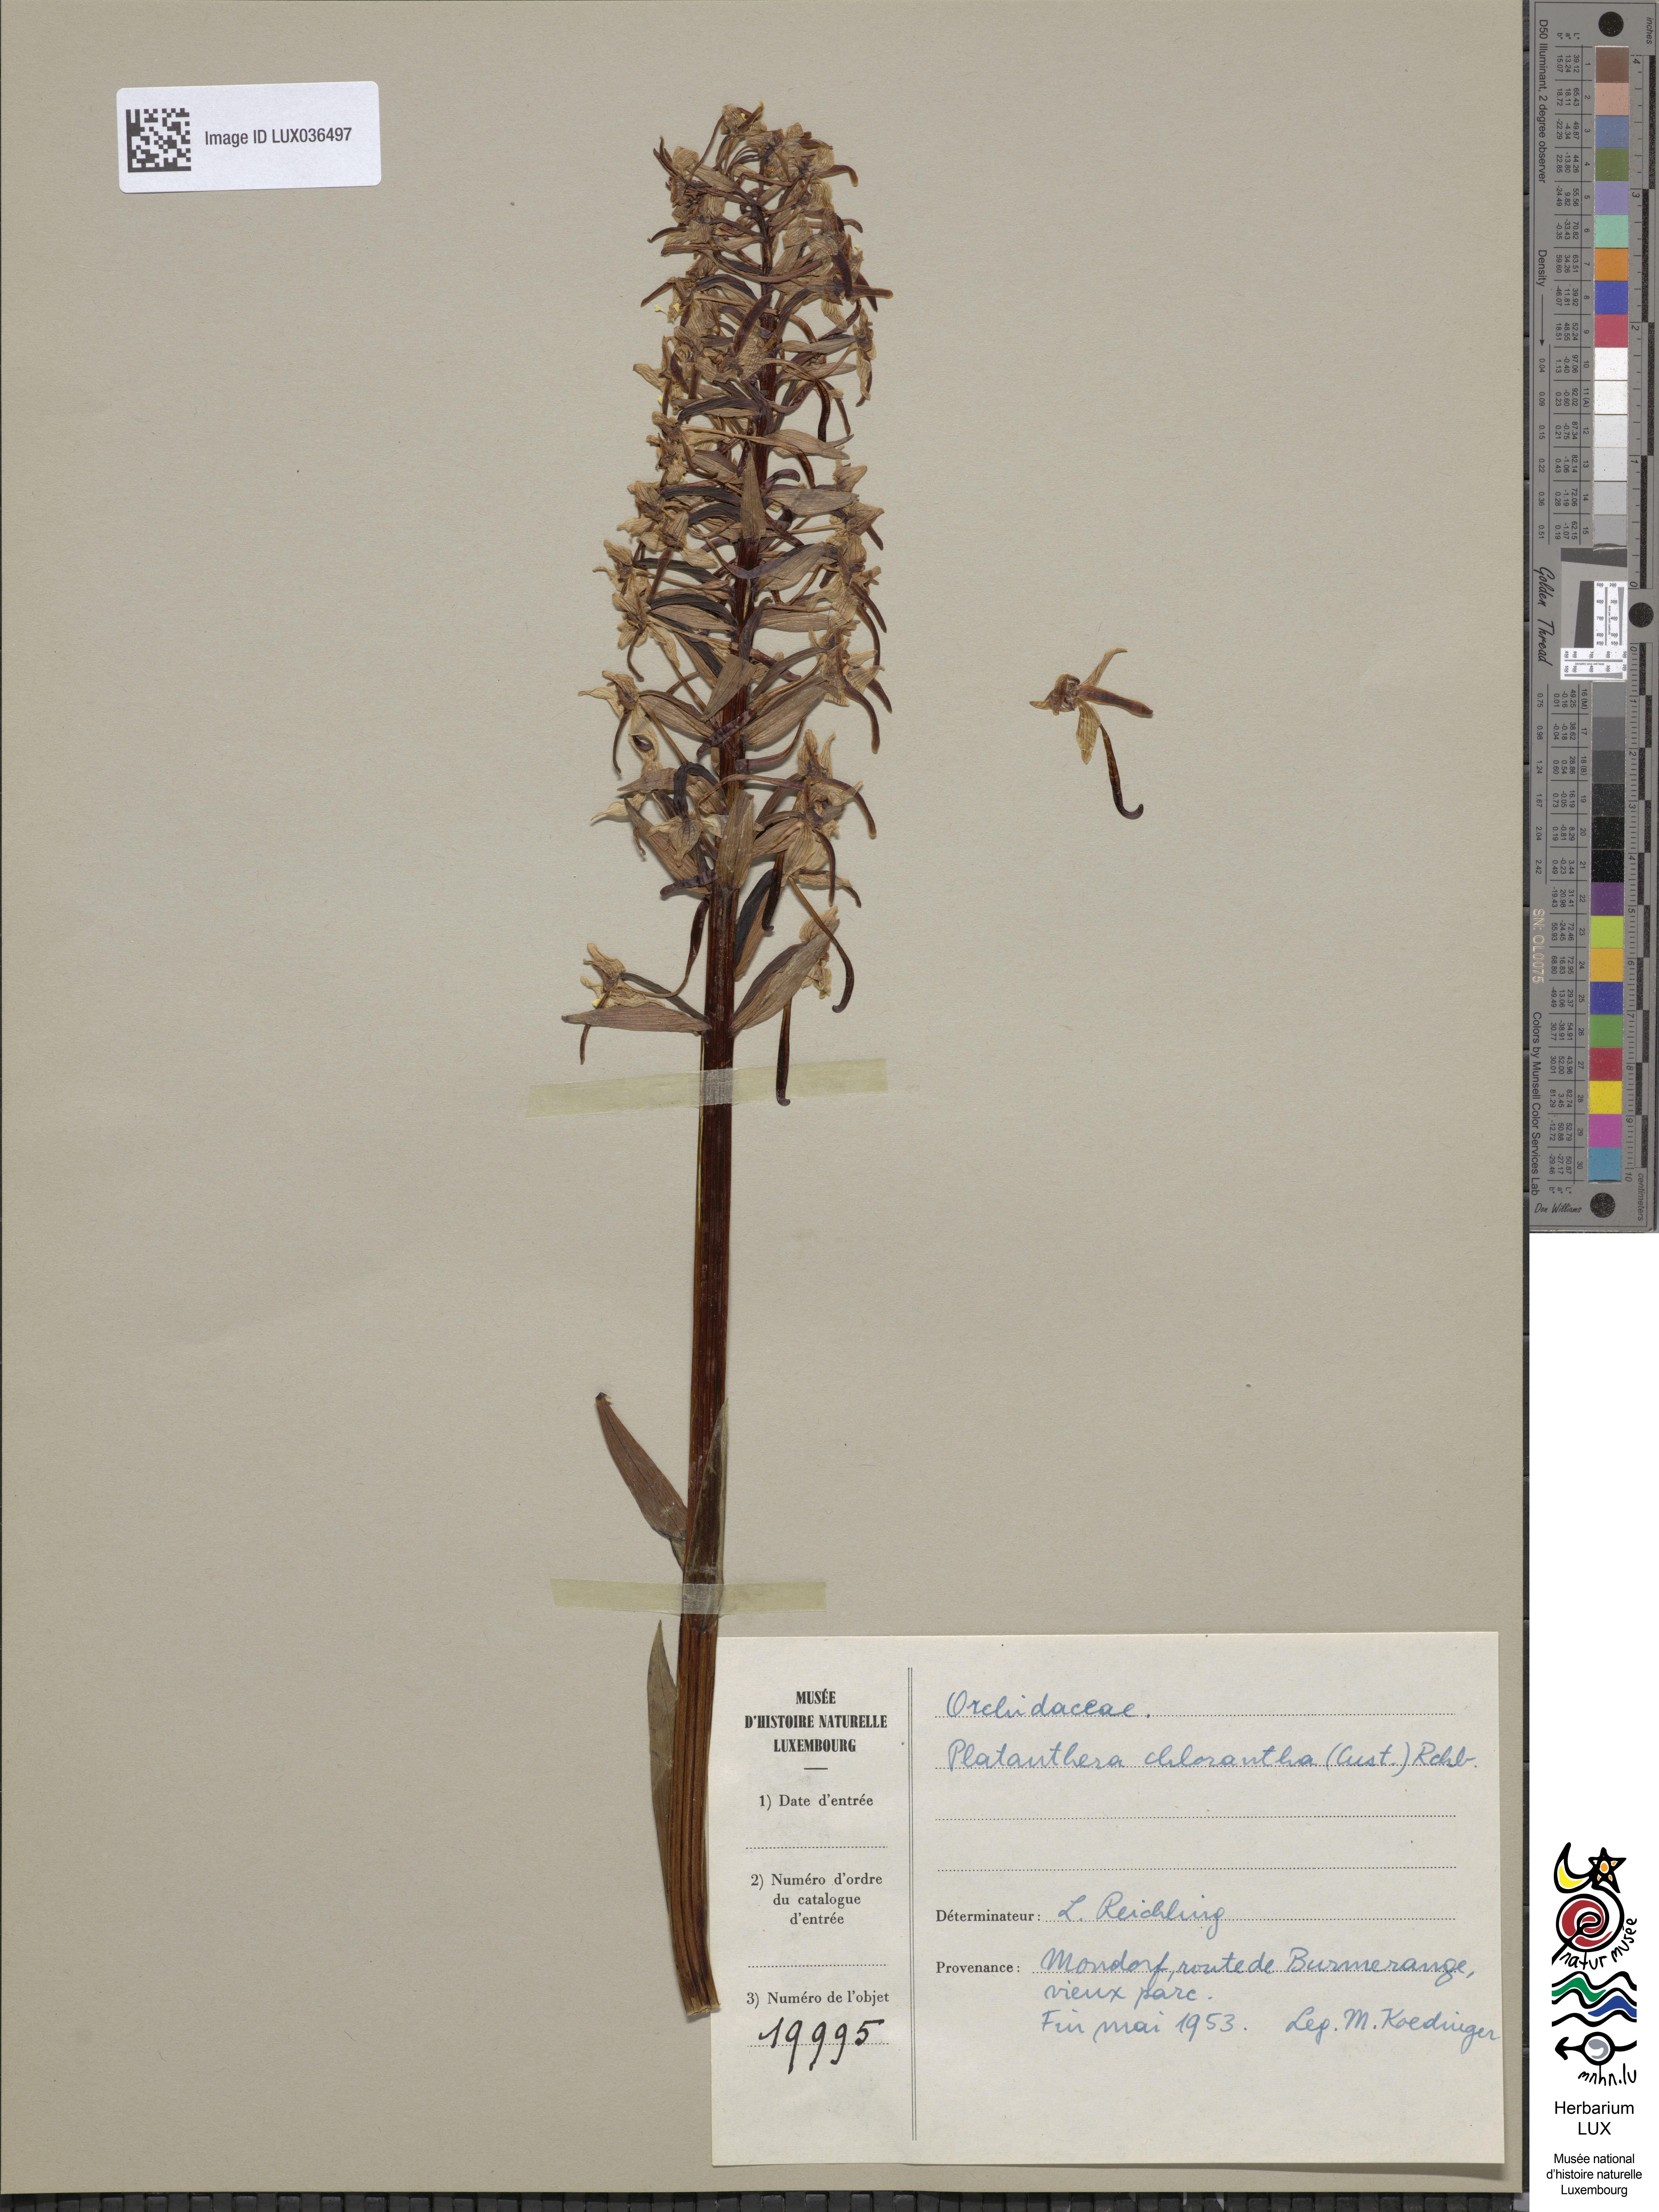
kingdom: Plantae
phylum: Tracheophyta
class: Liliopsida
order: Asparagales
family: Orchidaceae
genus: Platanthera
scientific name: Platanthera chlorantha
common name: Greater butterfly-orchid
